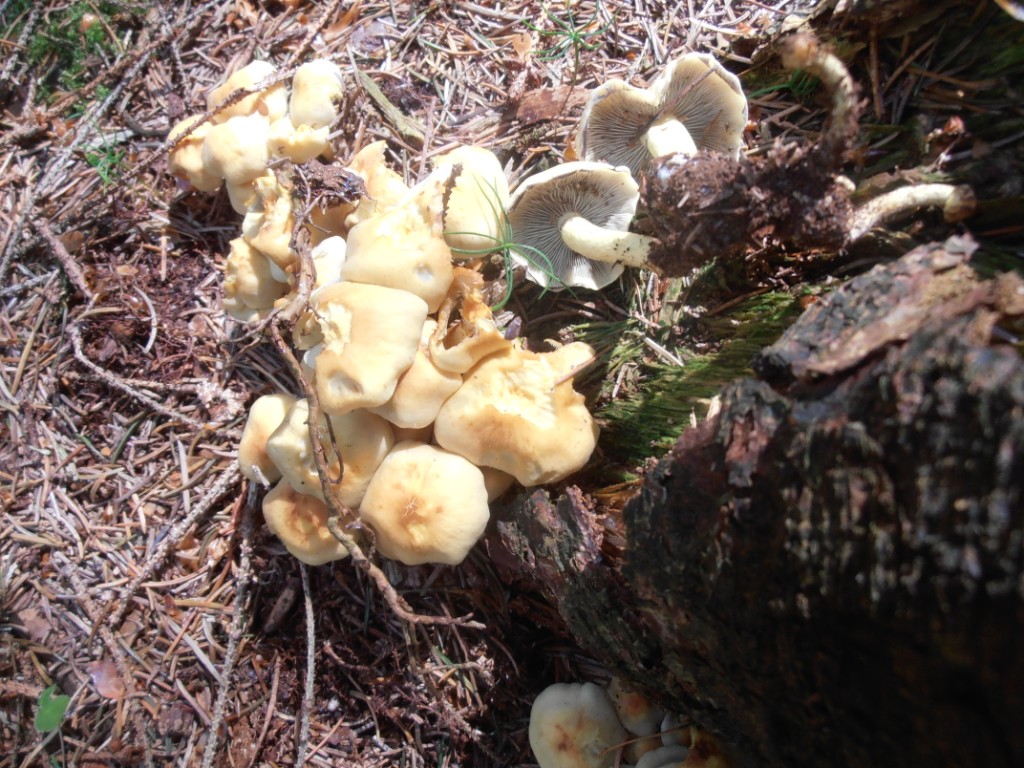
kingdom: Fungi
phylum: Basidiomycota
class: Agaricomycetes
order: Agaricales
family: Strophariaceae
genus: Hypholoma
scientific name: Hypholoma fasciculare
